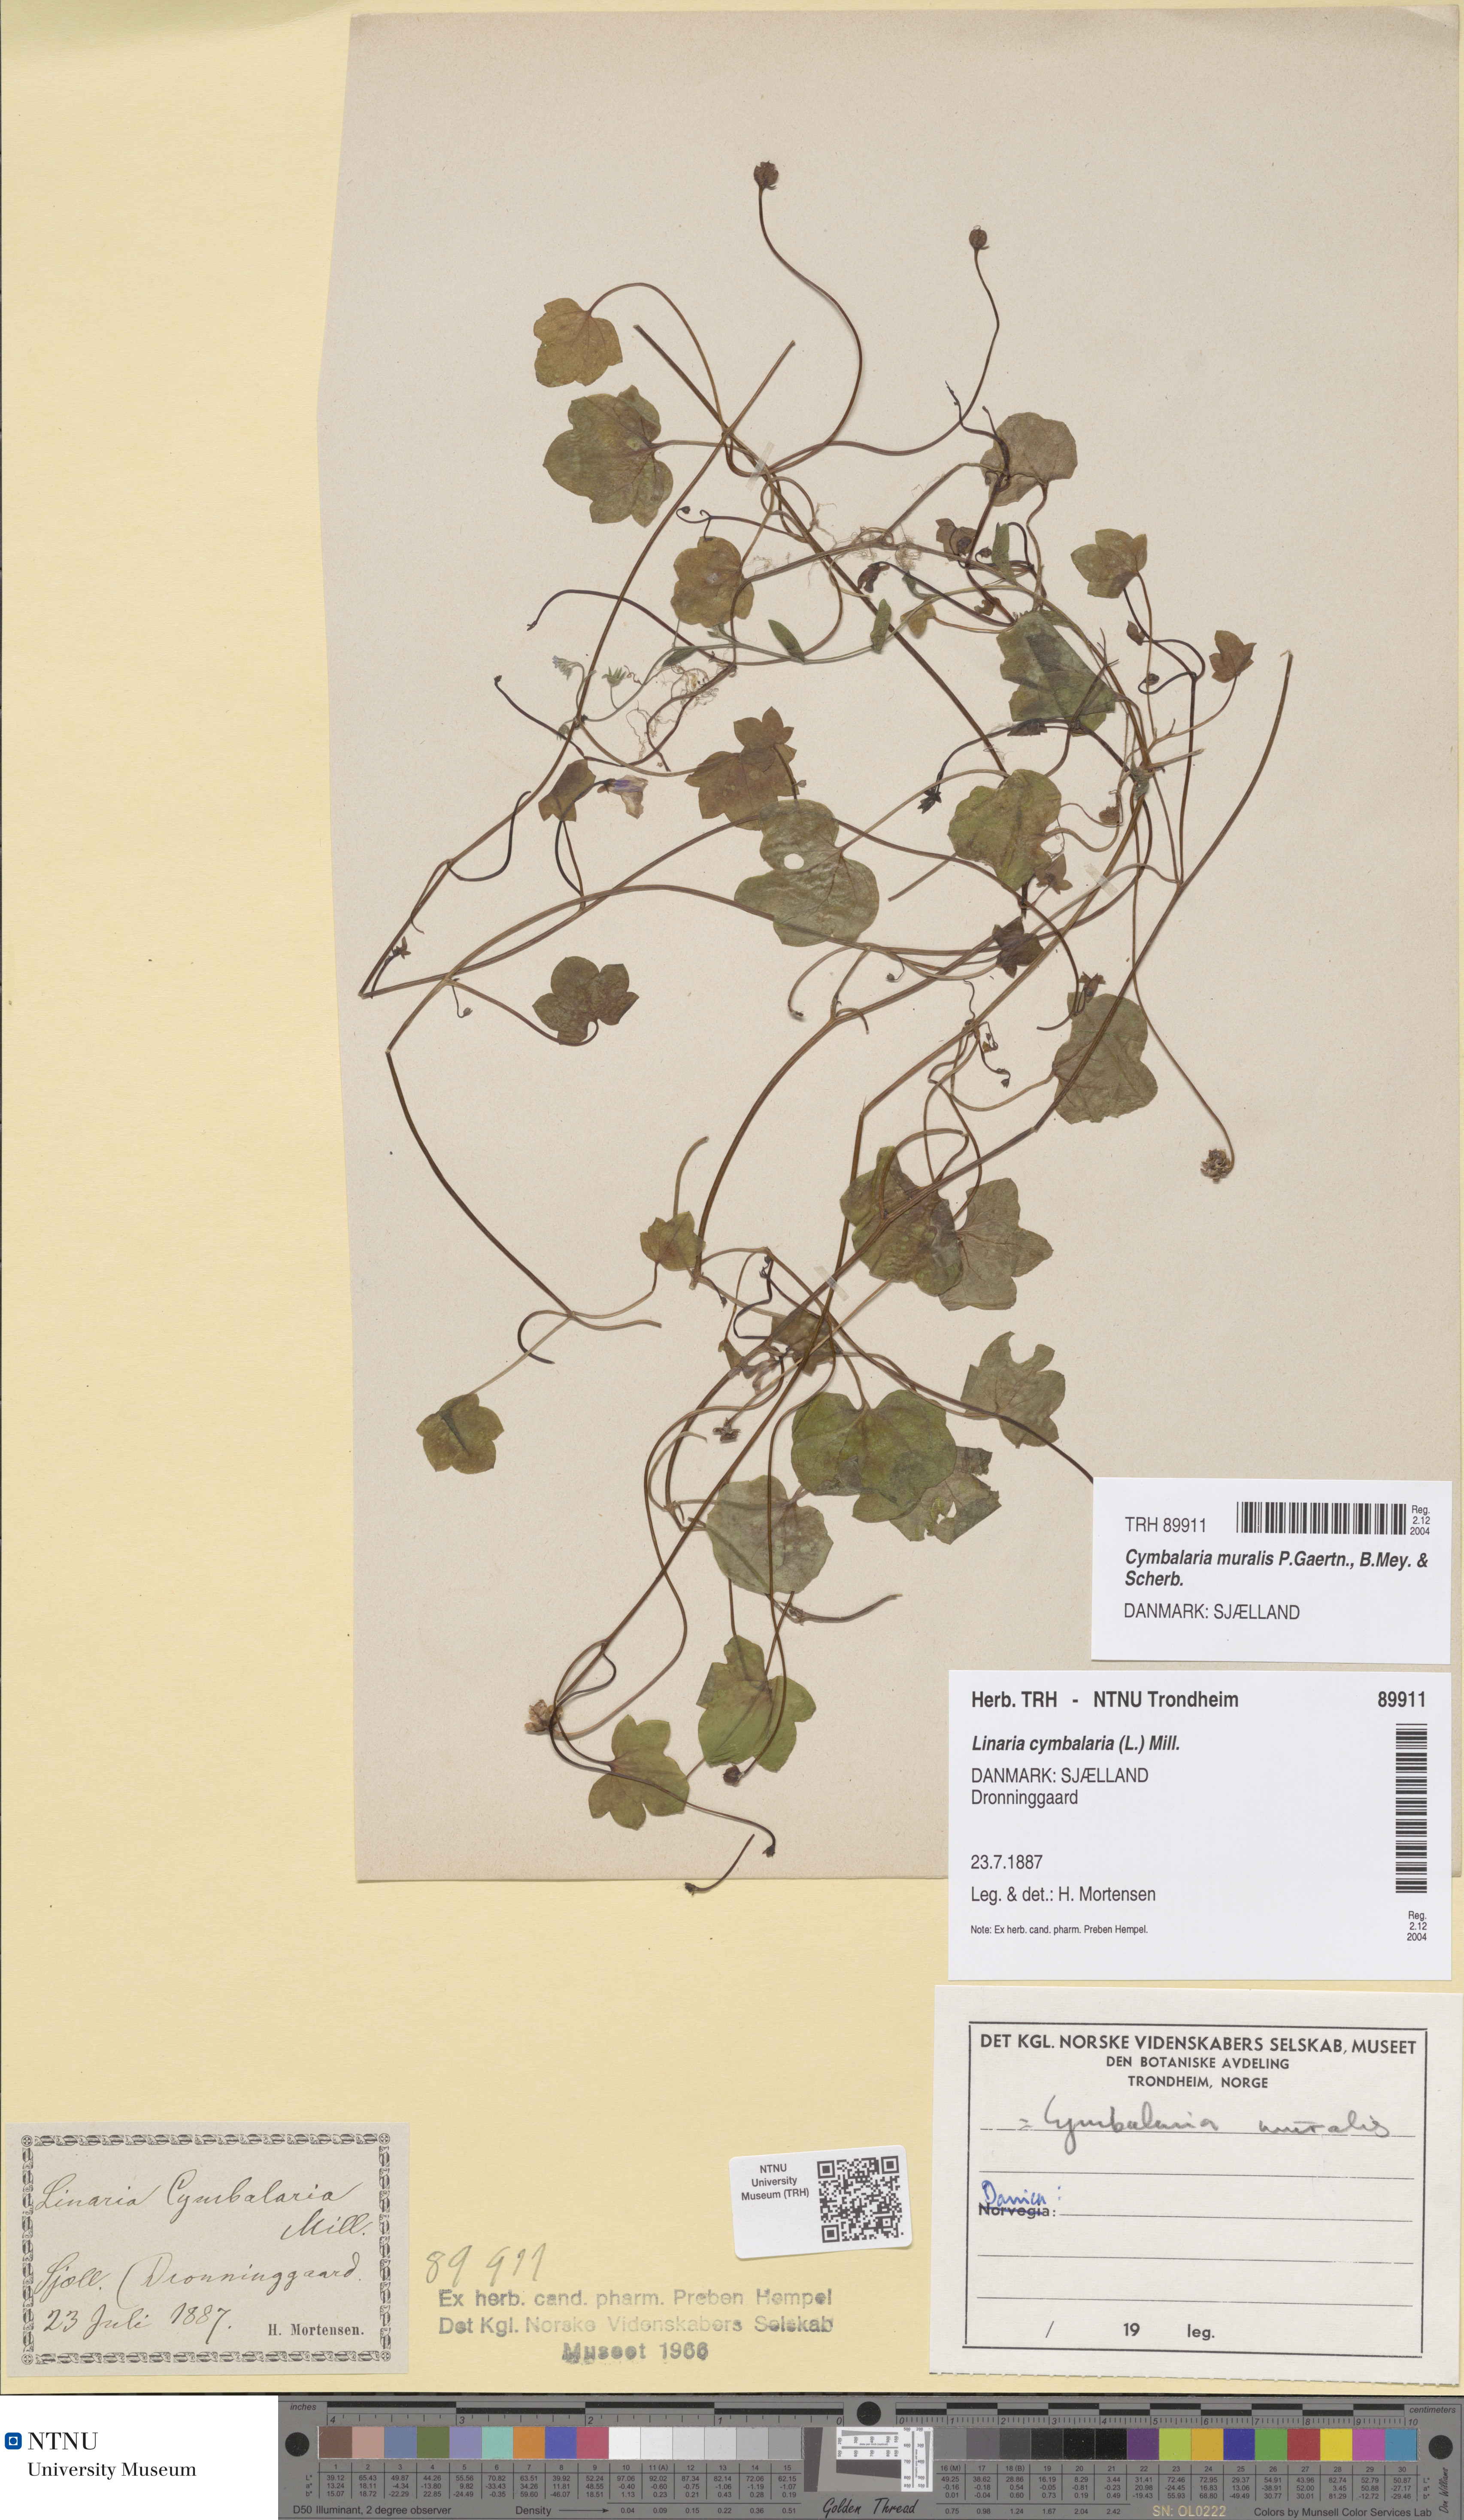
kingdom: Plantae
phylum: Tracheophyta
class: Magnoliopsida
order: Lamiales
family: Plantaginaceae
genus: Cymbalaria
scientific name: Cymbalaria muralis
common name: Ivy-leaved toadflax
